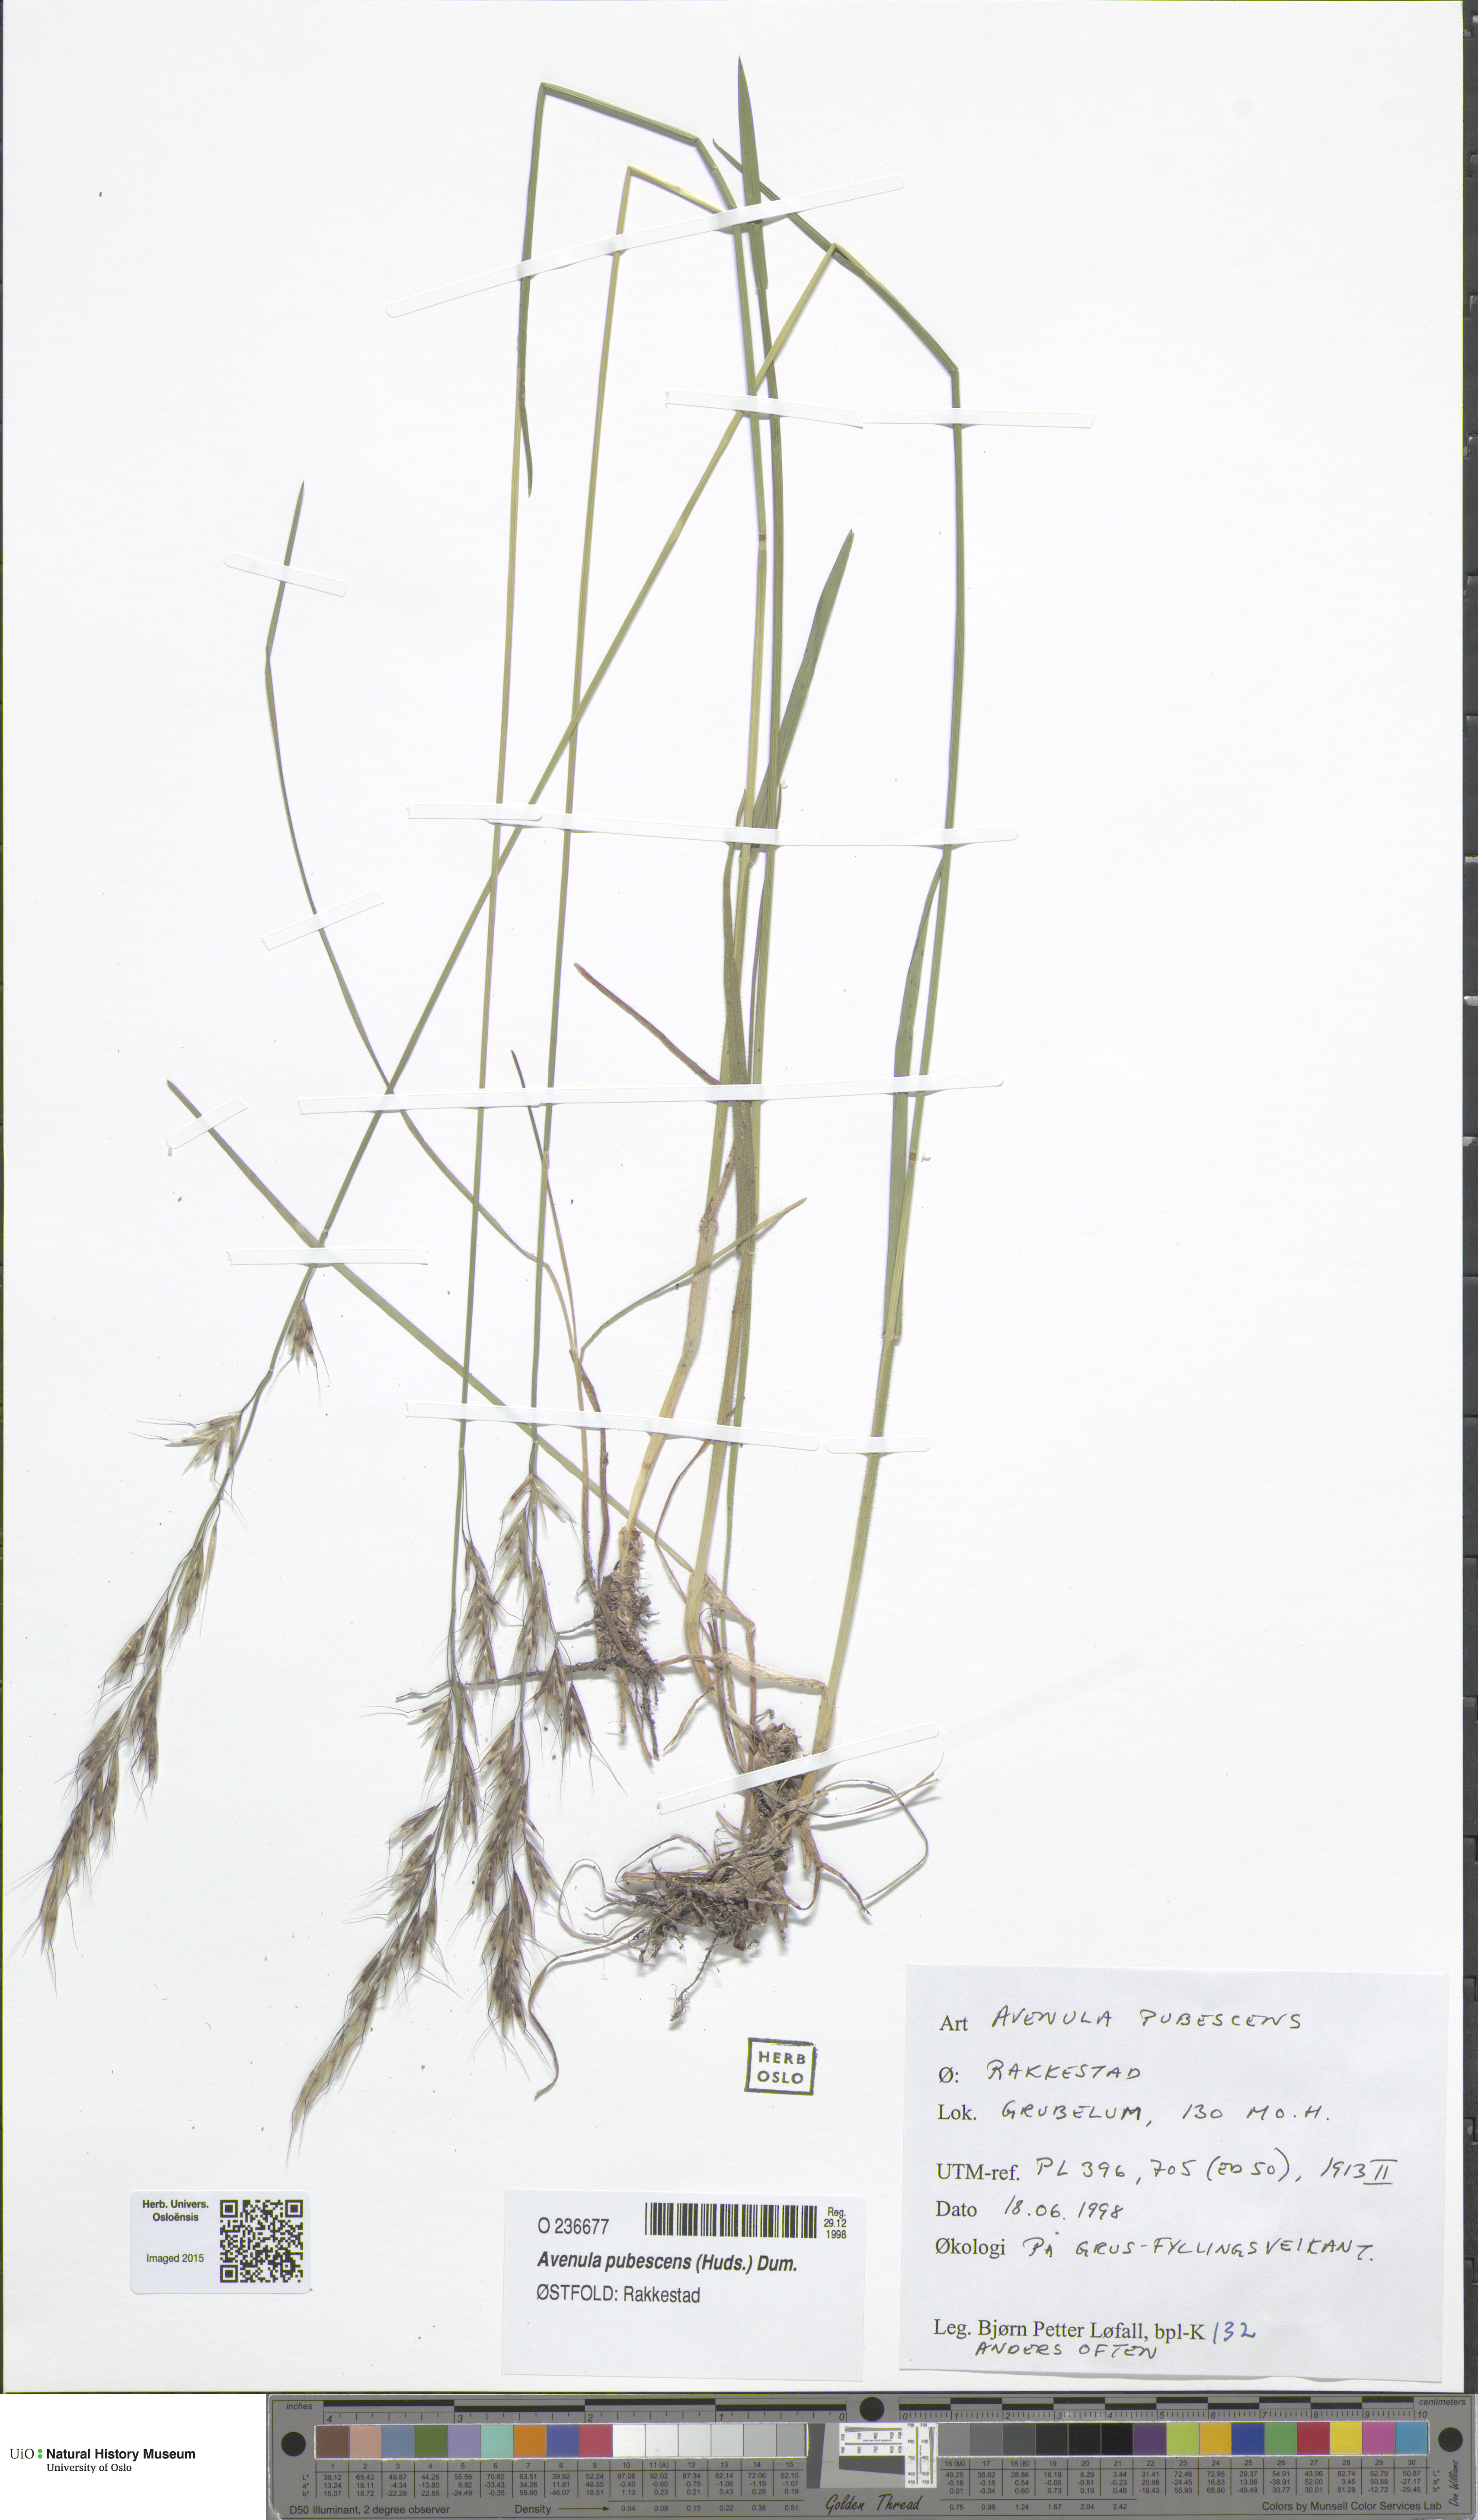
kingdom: Plantae
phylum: Tracheophyta
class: Liliopsida
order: Poales
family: Poaceae
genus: Avenula
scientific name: Avenula pubescens
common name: Downy alpine oatgrass
